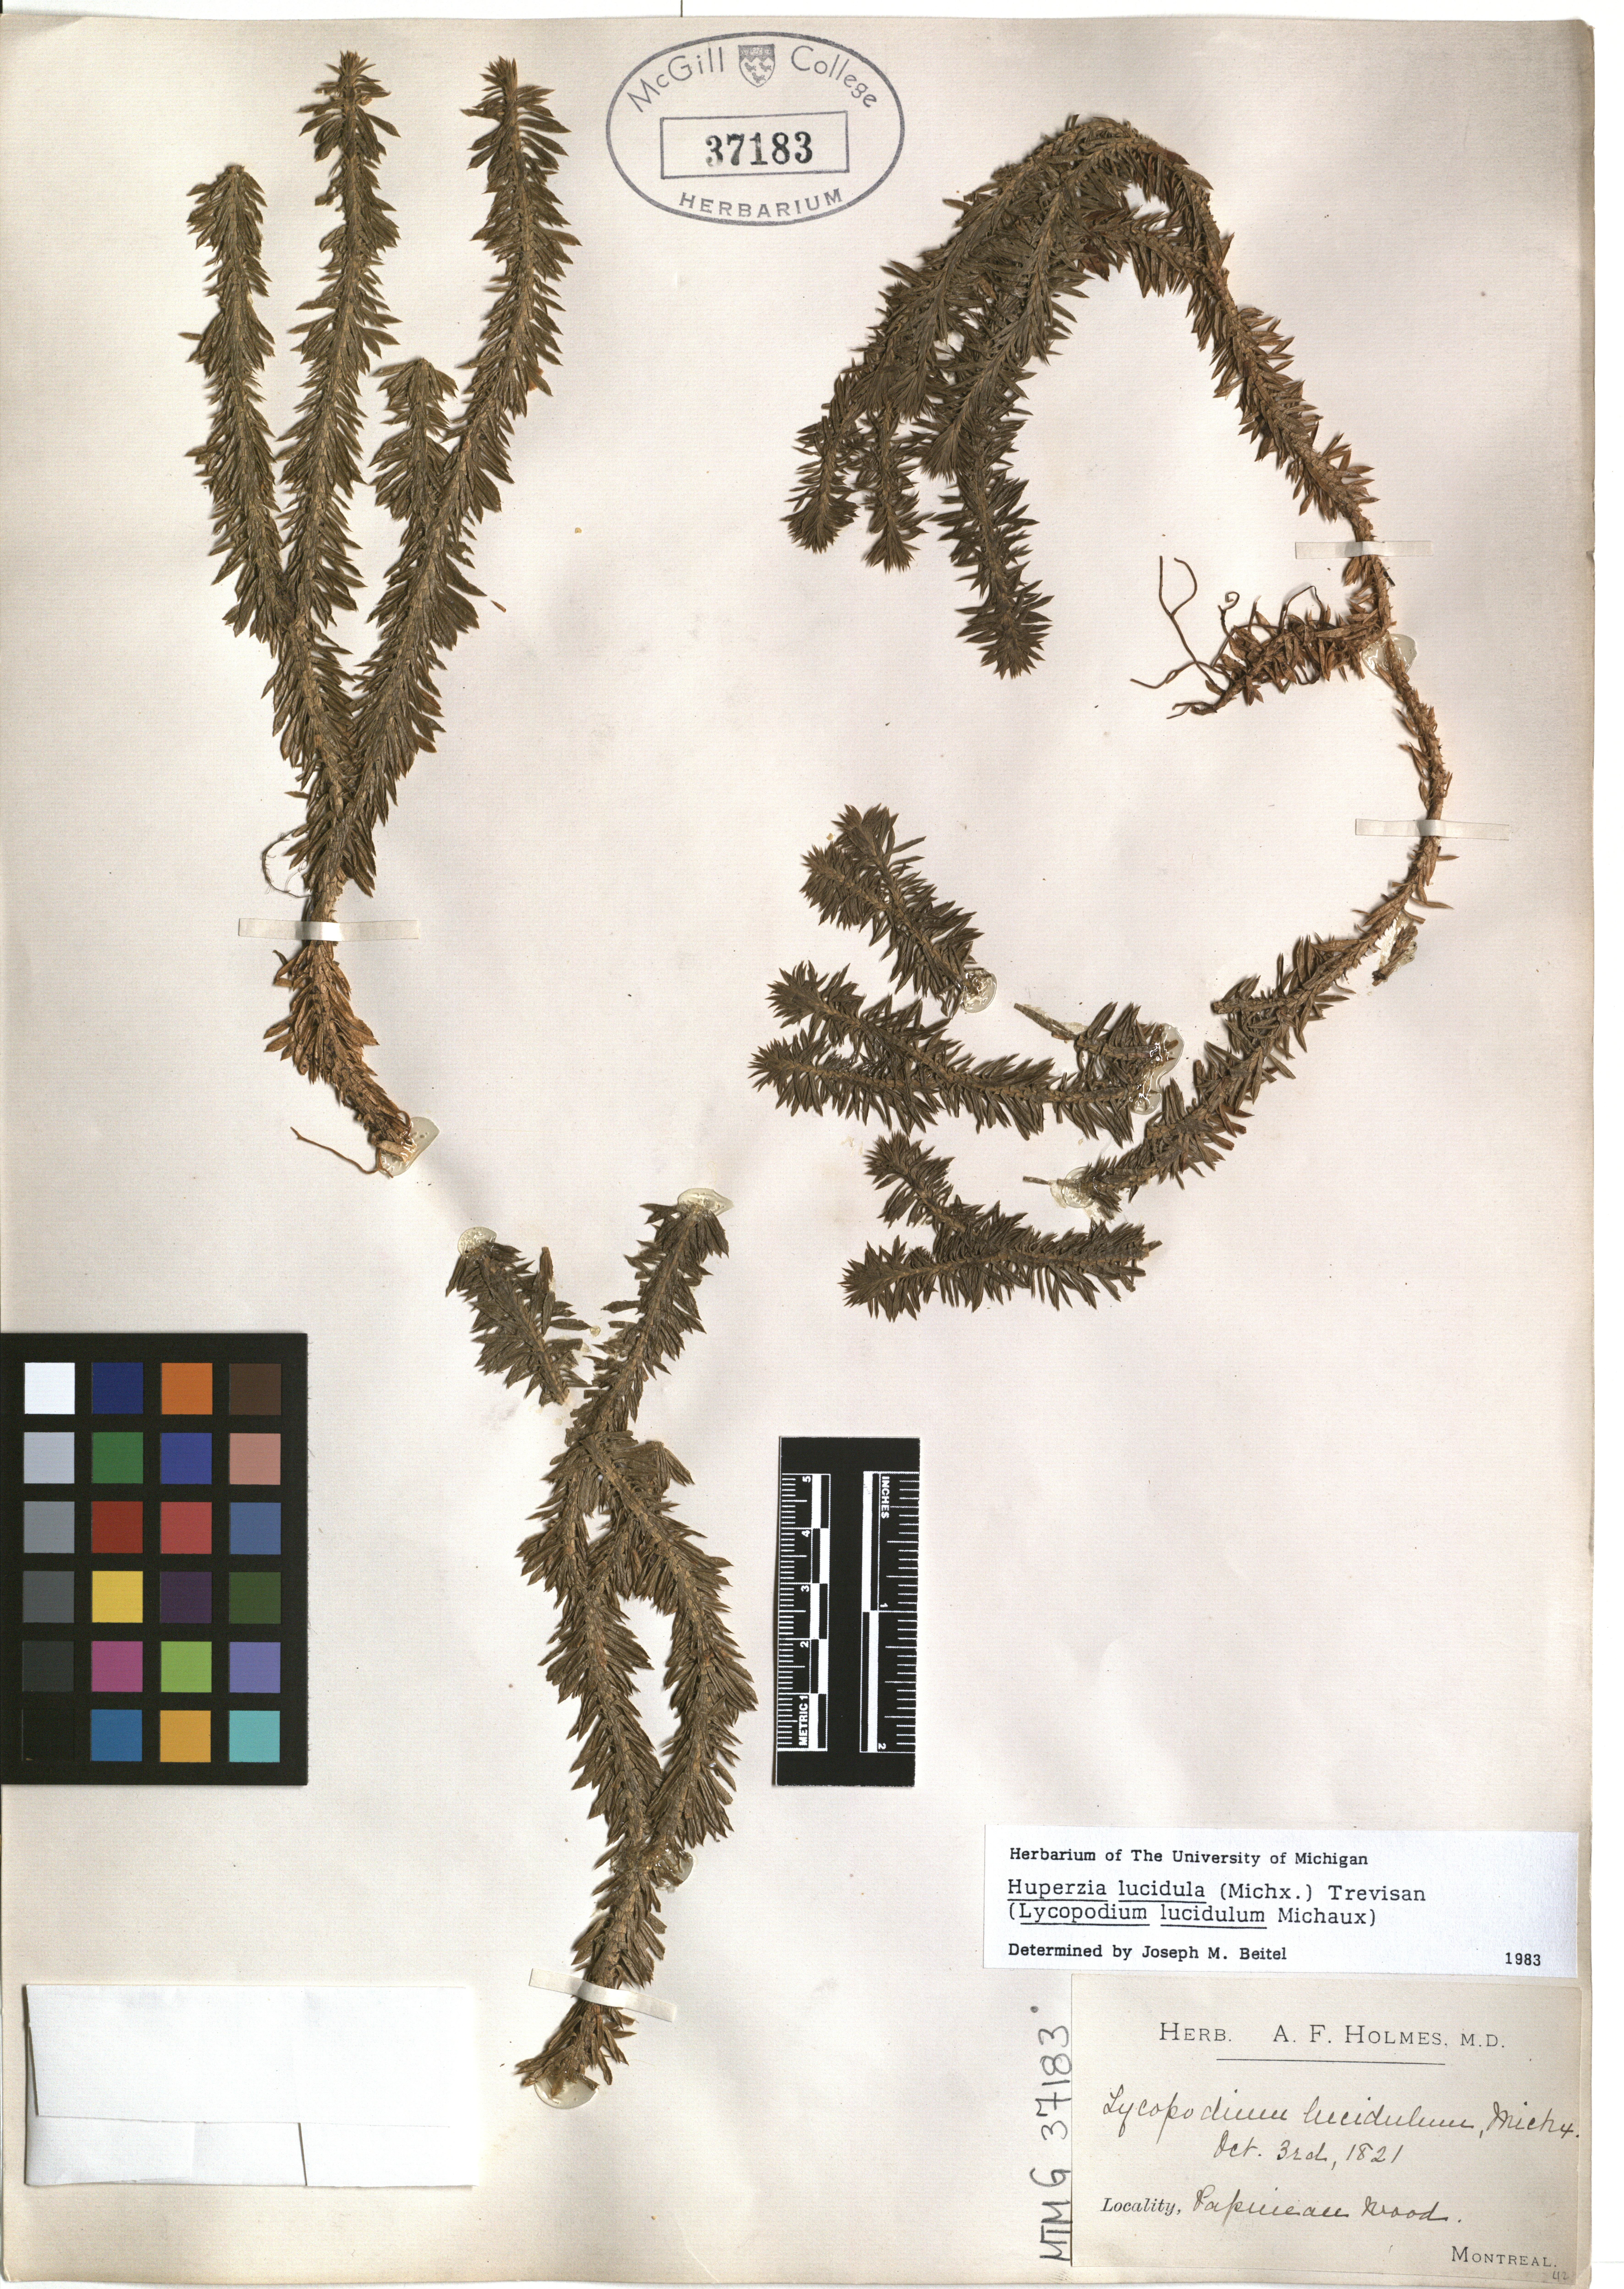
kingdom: Plantae
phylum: Tracheophyta
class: Lycopodiopsida
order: Lycopodiales
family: Lycopodiaceae
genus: Huperzia
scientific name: Huperzia lucidula
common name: Shining clubmoss
